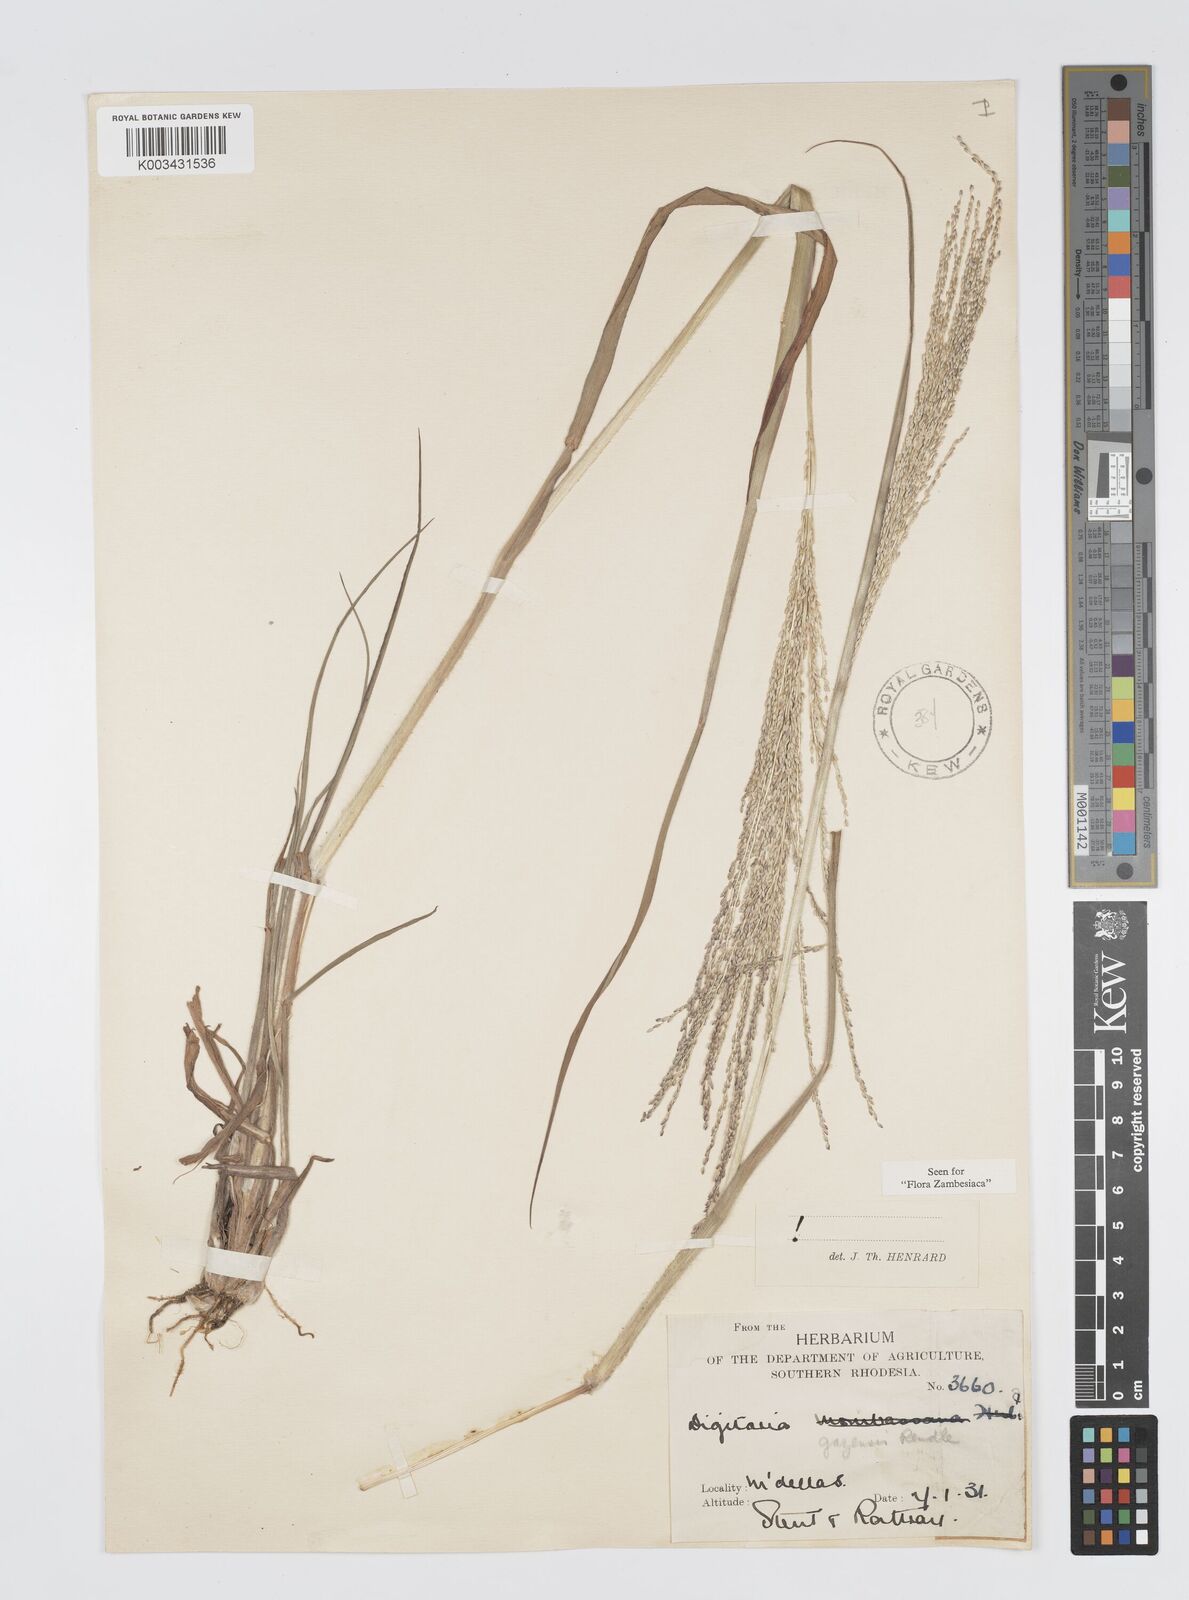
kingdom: Plantae
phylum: Tracheophyta
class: Liliopsida
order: Poales
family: Poaceae
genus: Digitaria
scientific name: Digitaria gazensis
